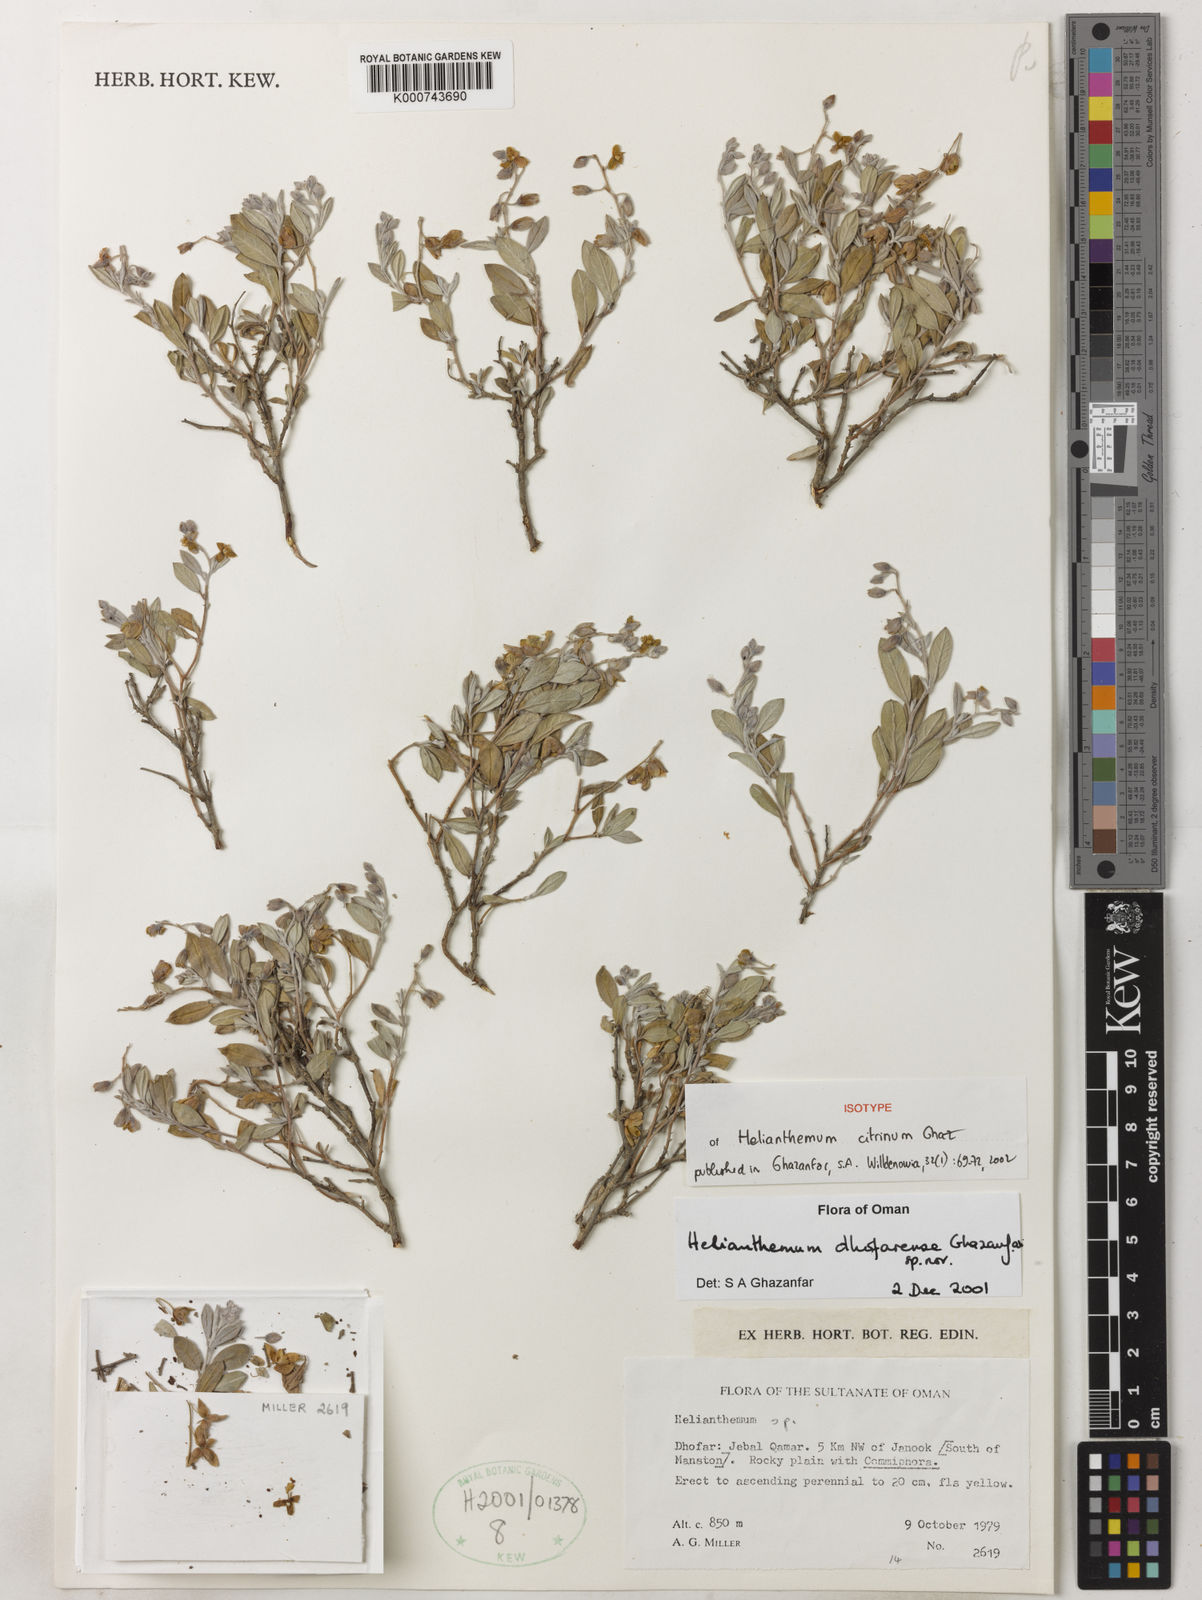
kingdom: Plantae
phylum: Tracheophyta
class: Magnoliopsida
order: Malvales
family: Cistaceae
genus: Helianthemum
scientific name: Helianthemum
